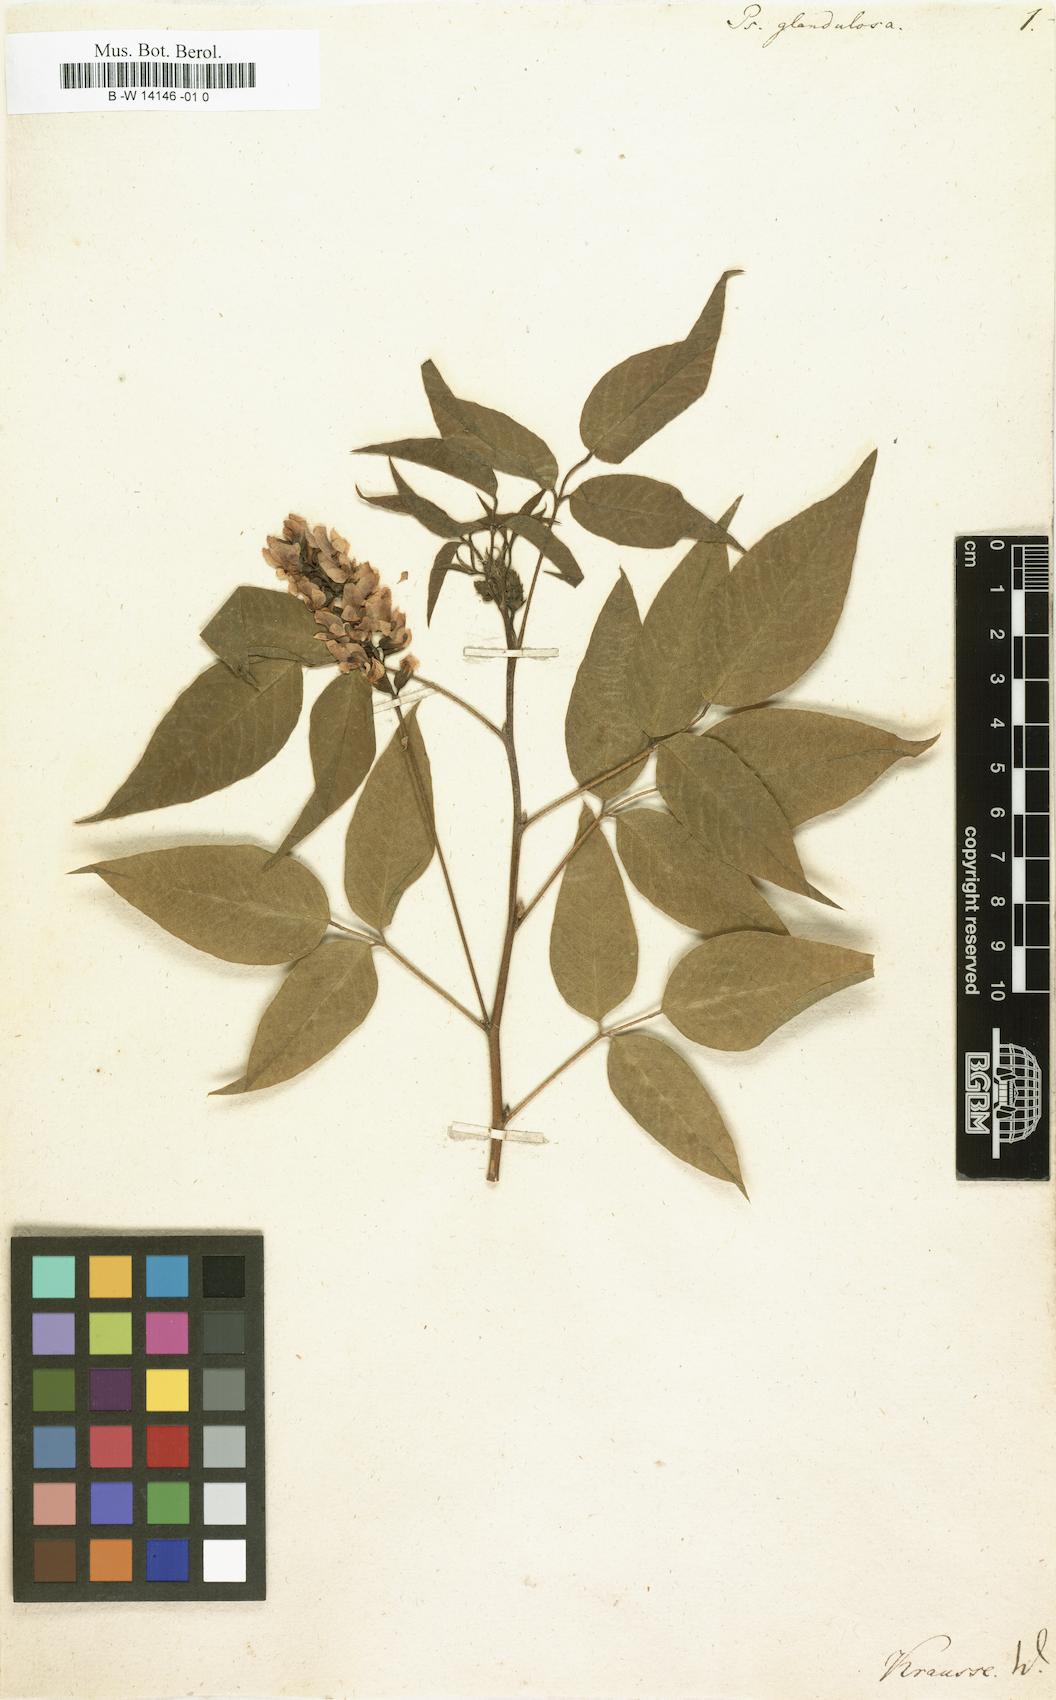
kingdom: Plantae
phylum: Tracheophyta
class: Magnoliopsida
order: Fabales
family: Fabaceae
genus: Psoralea
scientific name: Psoralea Otholobium glandulosum
